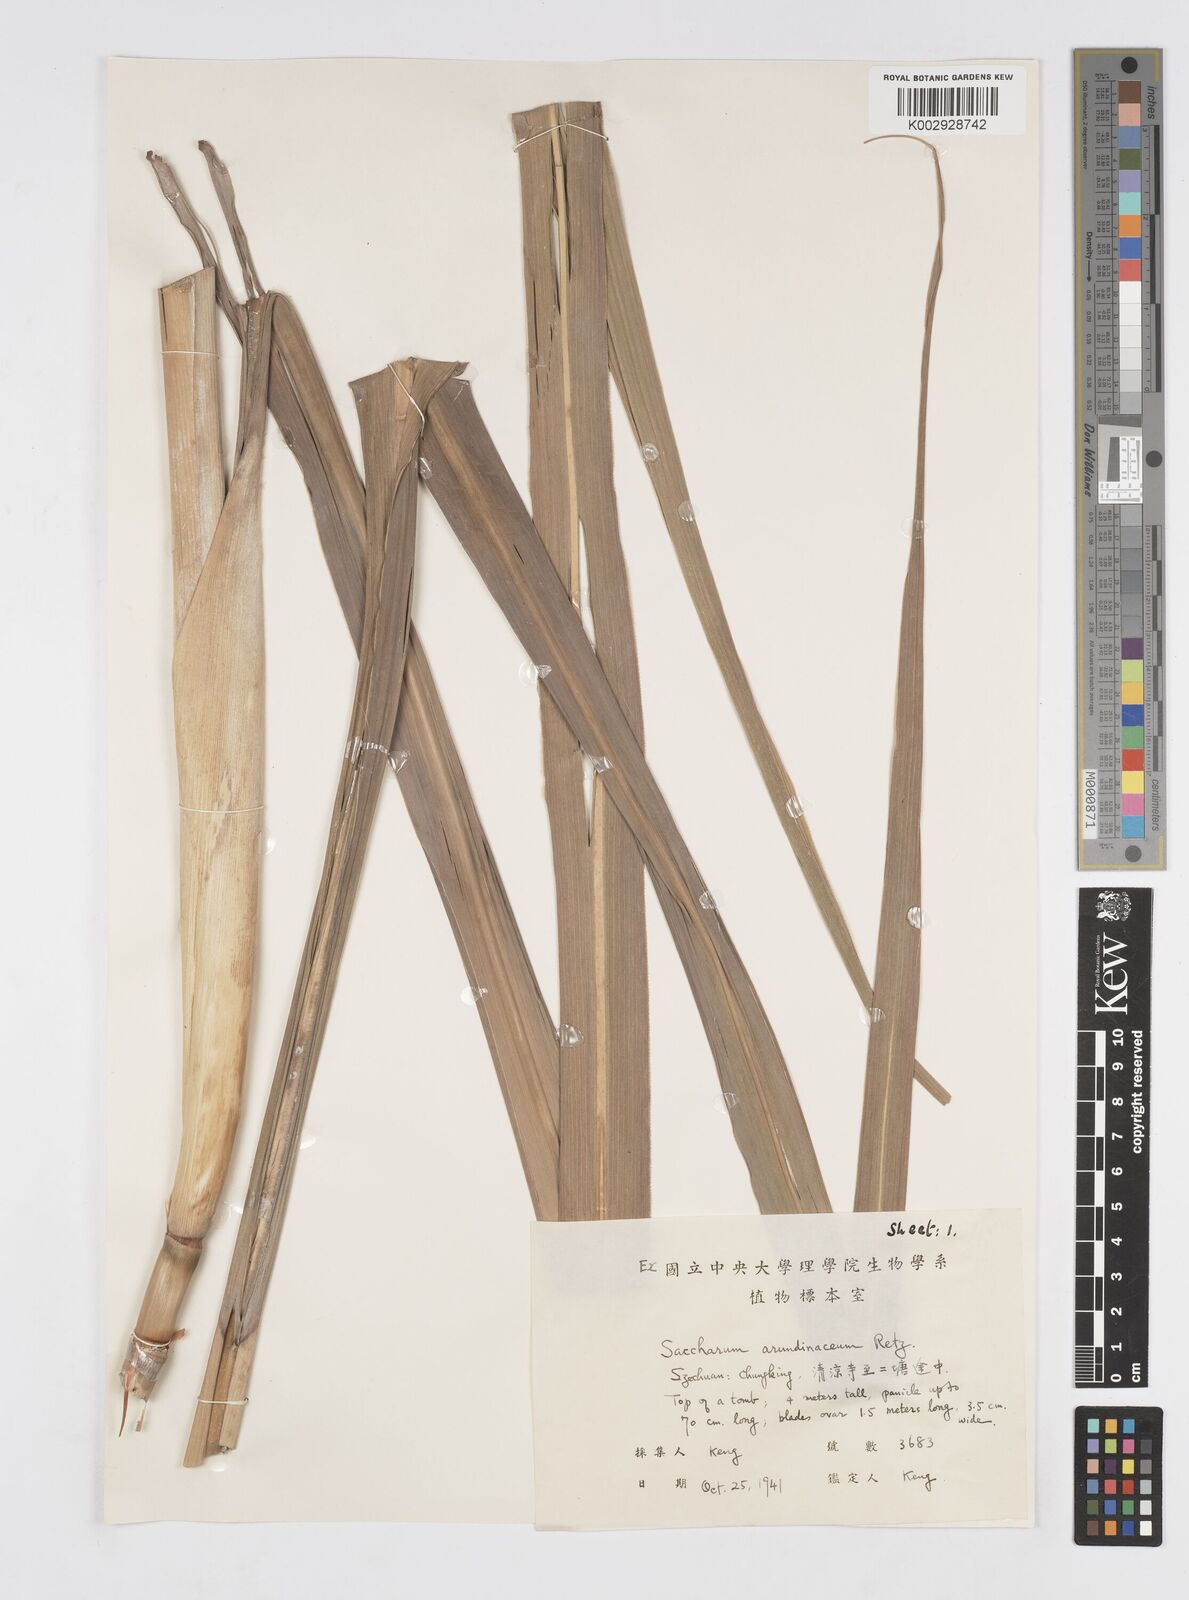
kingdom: Plantae
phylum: Tracheophyta
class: Liliopsida
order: Poales
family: Poaceae
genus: Tripidium
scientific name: Tripidium arundinaceum
